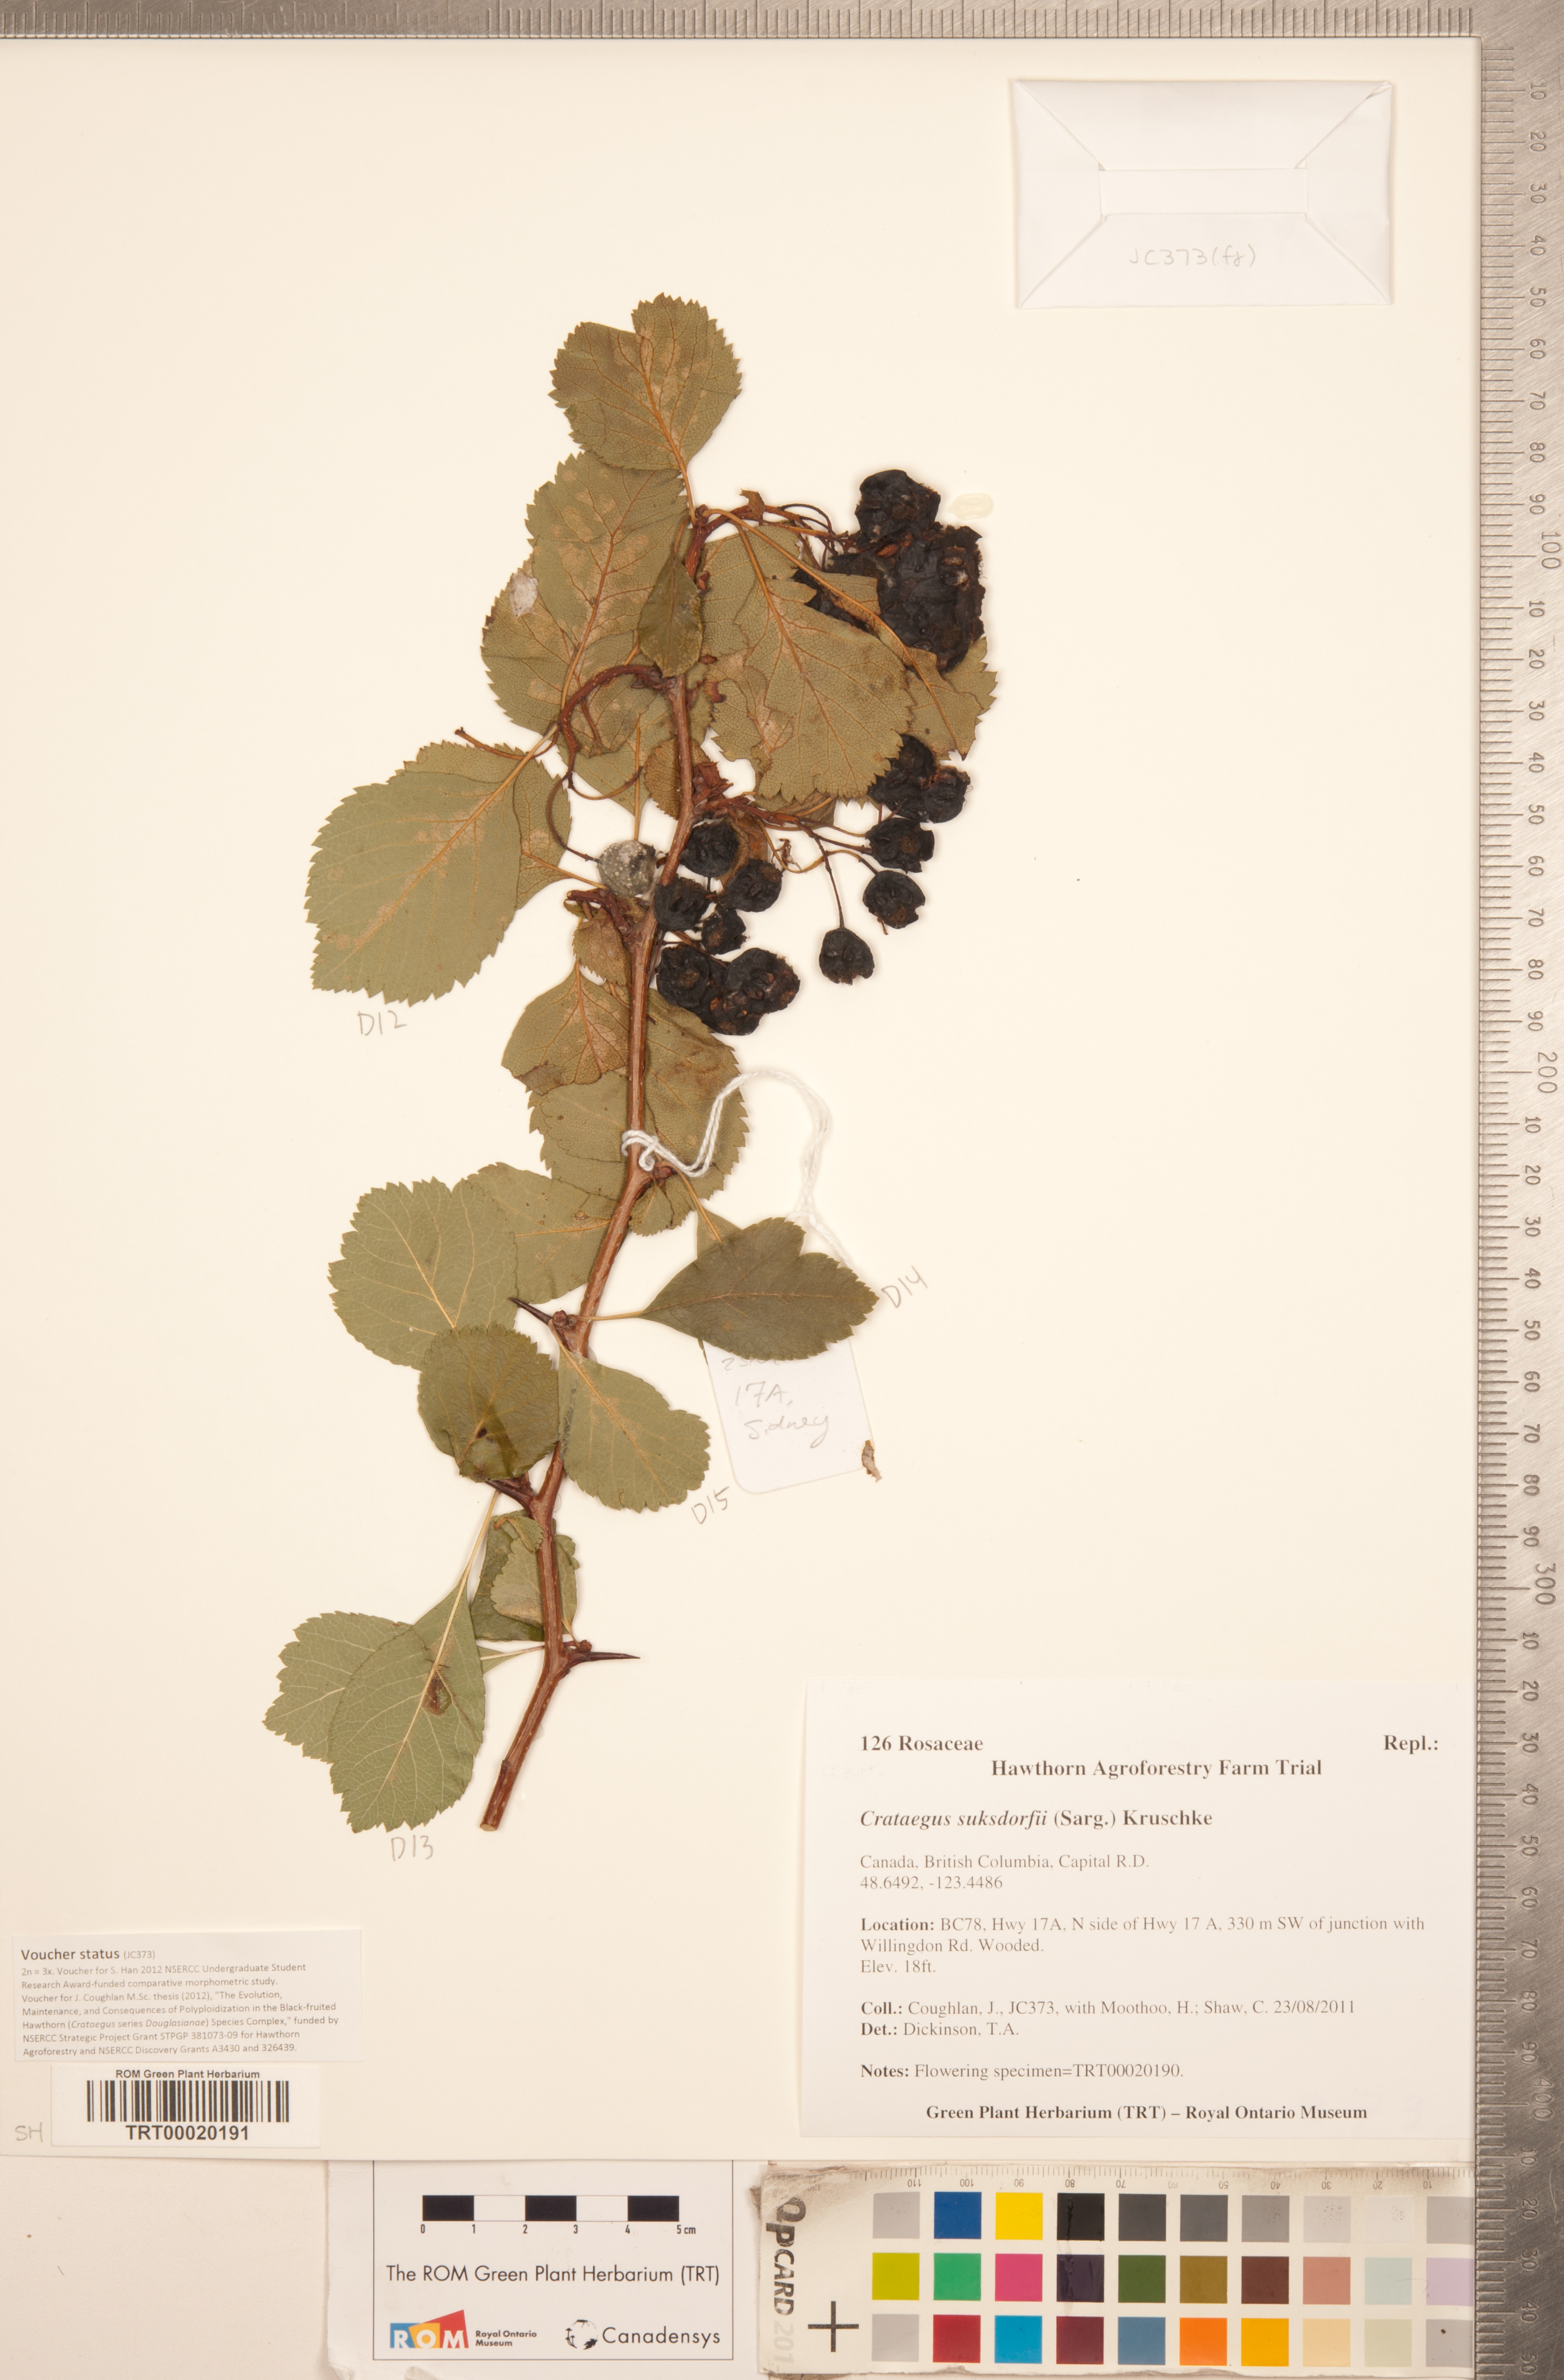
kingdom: Plantae
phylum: Tracheophyta
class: Magnoliopsida
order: Rosales
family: Rosaceae
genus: Crataegus
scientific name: Crataegus gaylussacia
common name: Huckleberry hawthorn
